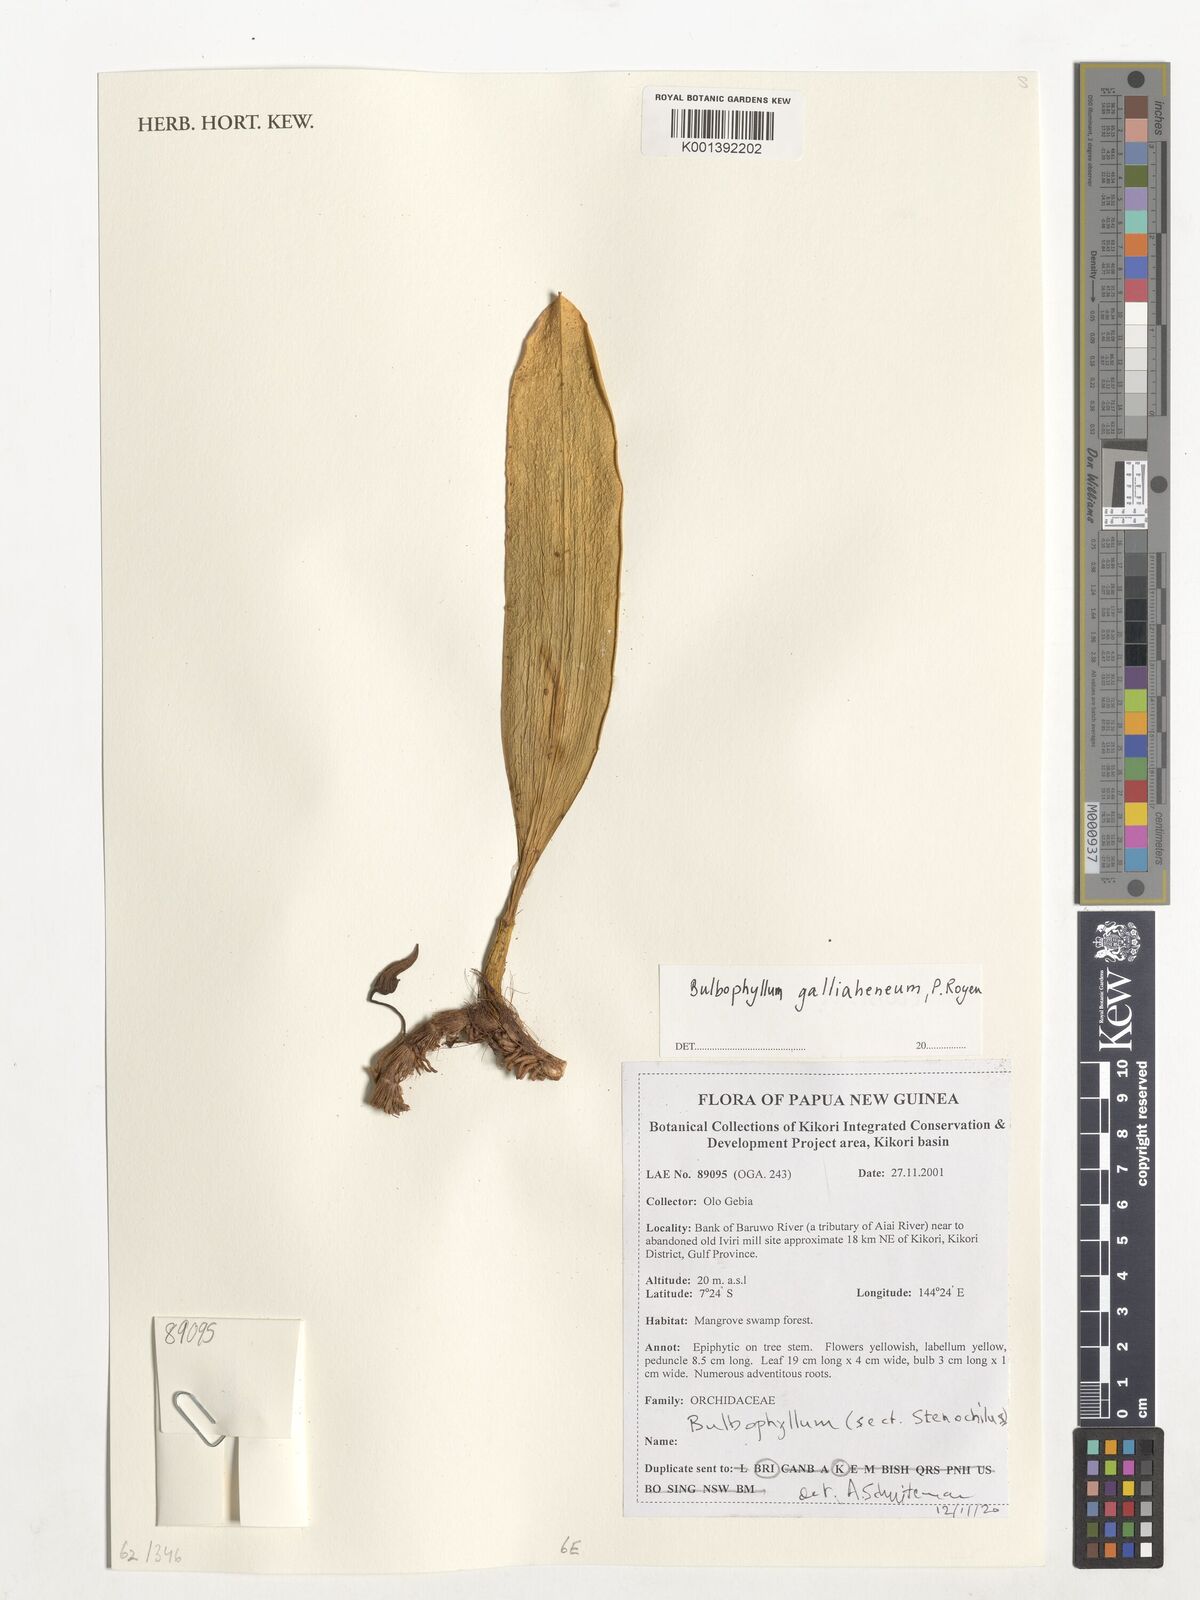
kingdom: Plantae
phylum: Tracheophyta
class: Liliopsida
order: Asparagales
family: Orchidaceae
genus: Bulbophyllum
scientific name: Bulbophyllum galliaheneum
